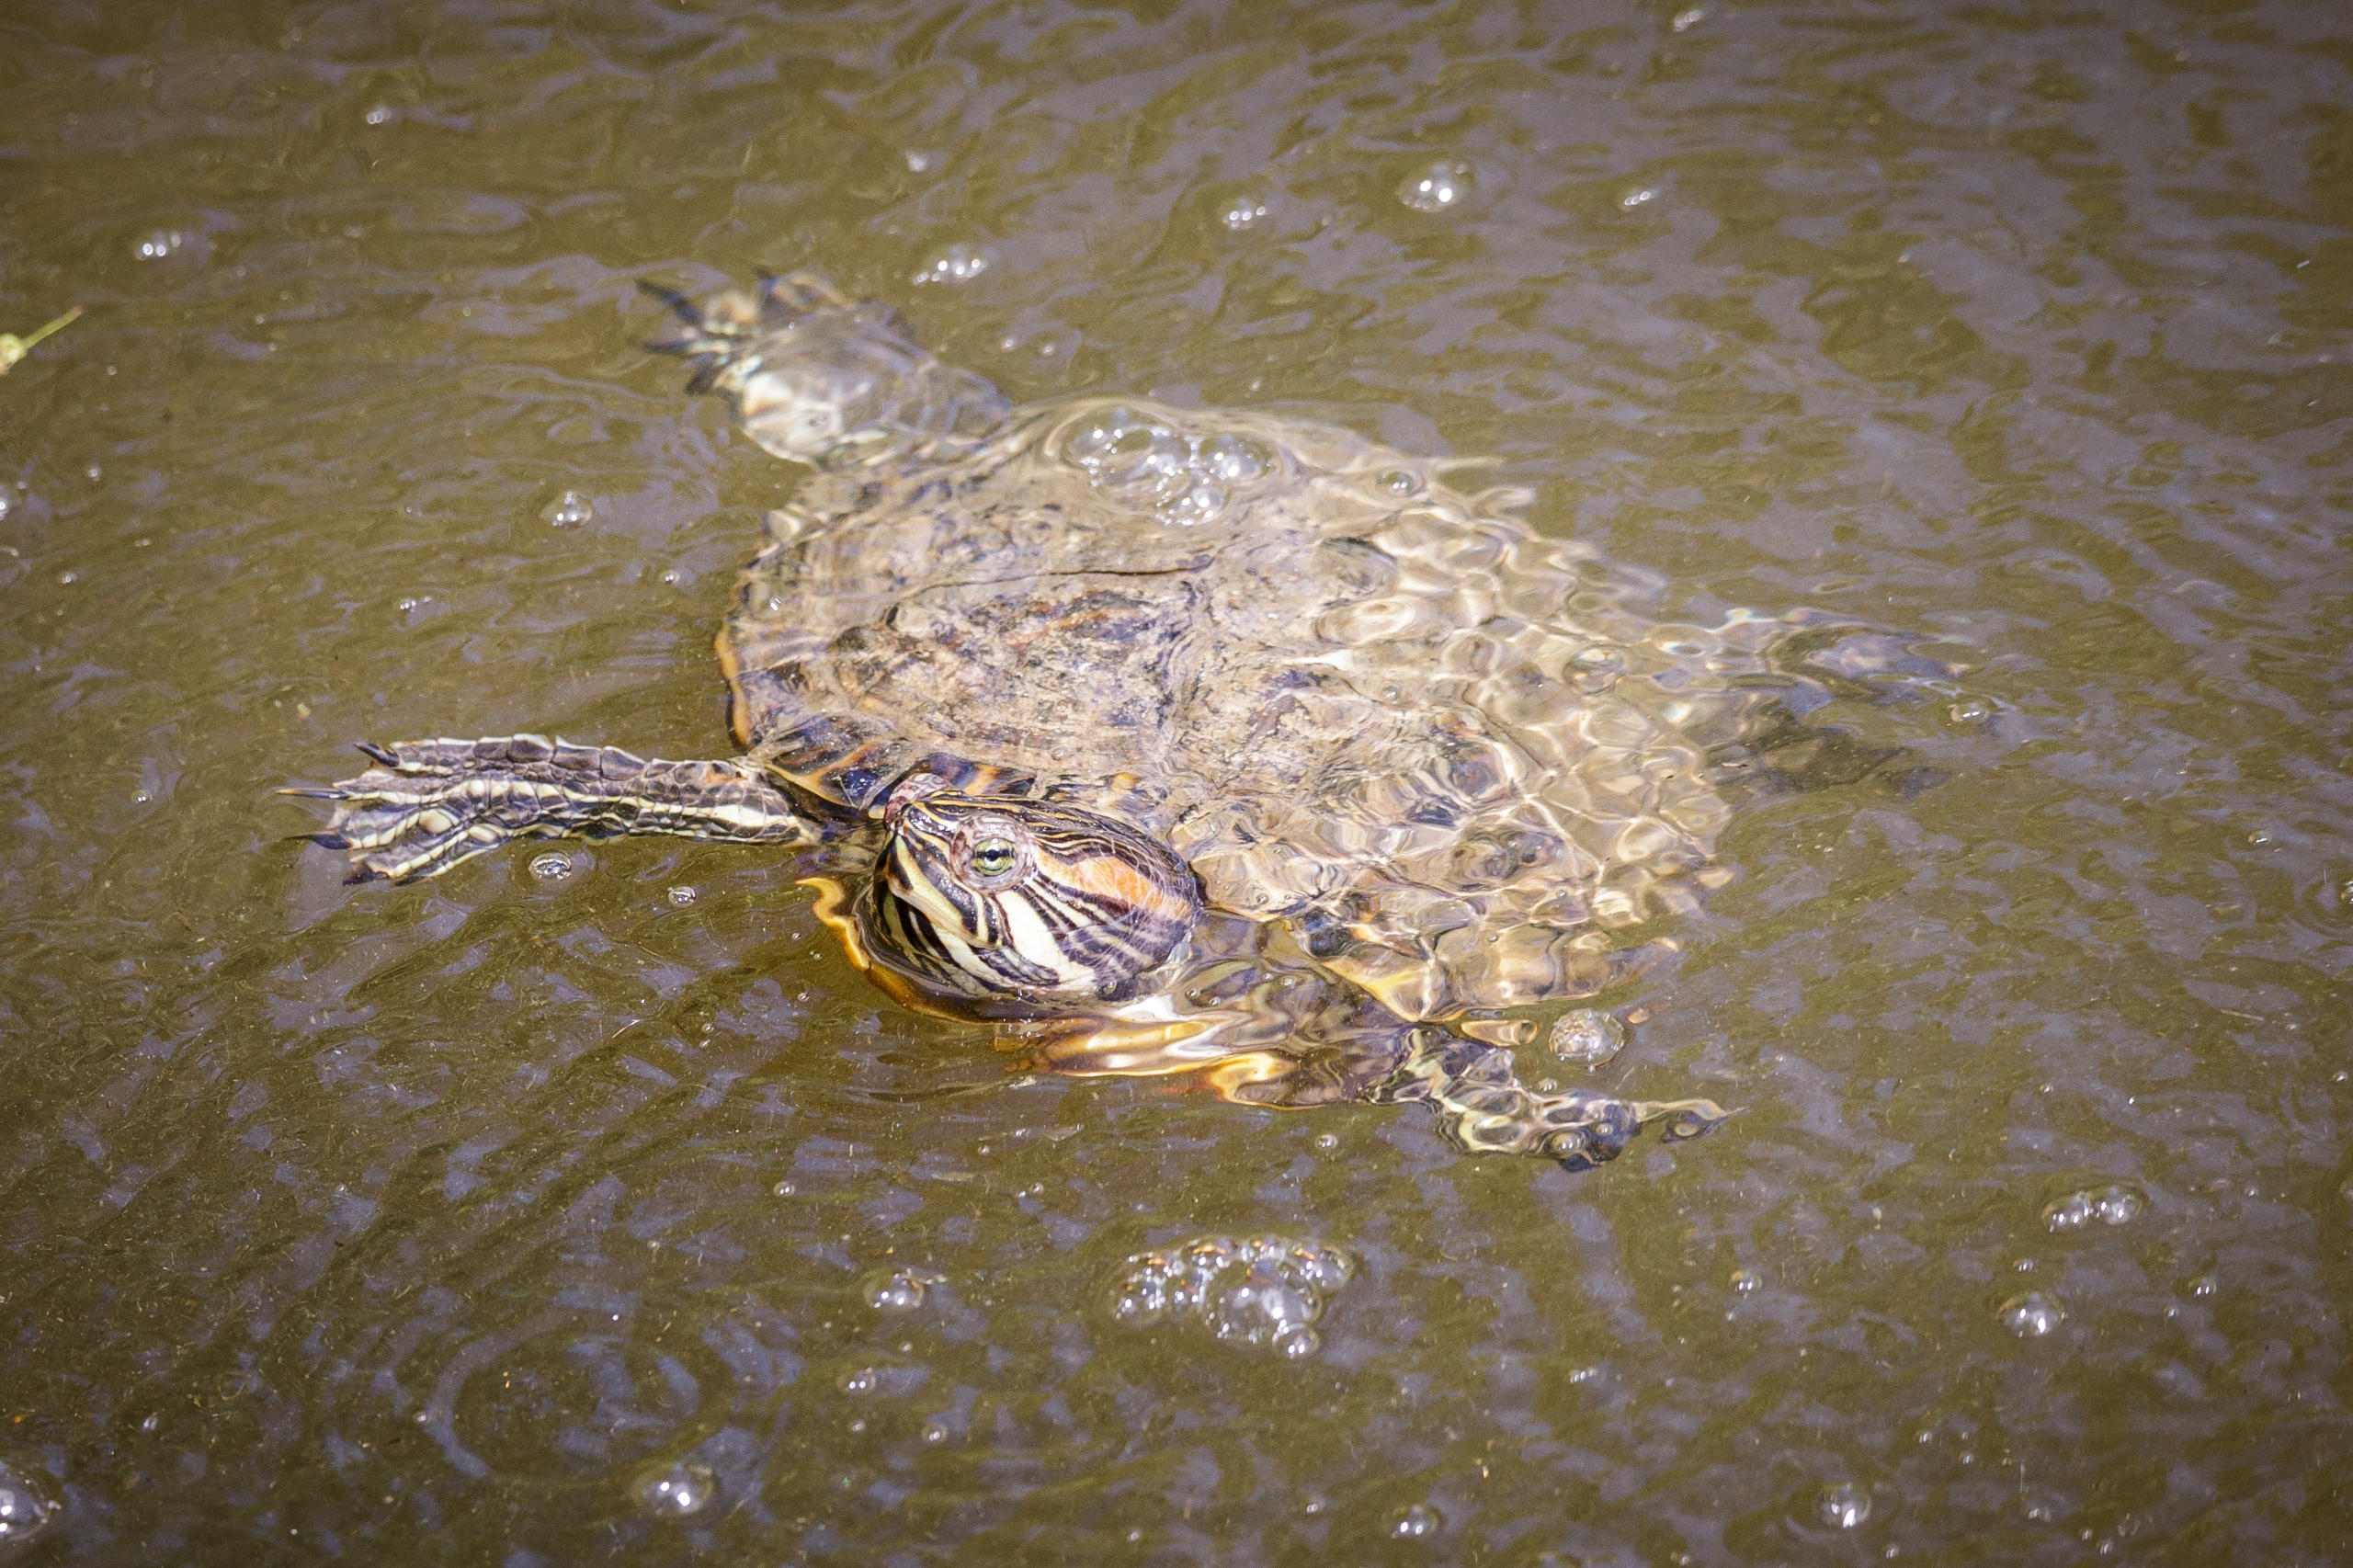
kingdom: Animalia
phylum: Chordata
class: Testudines
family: Emydidae
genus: Trachemys
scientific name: Trachemys scripta
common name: Rødøret terrapin
